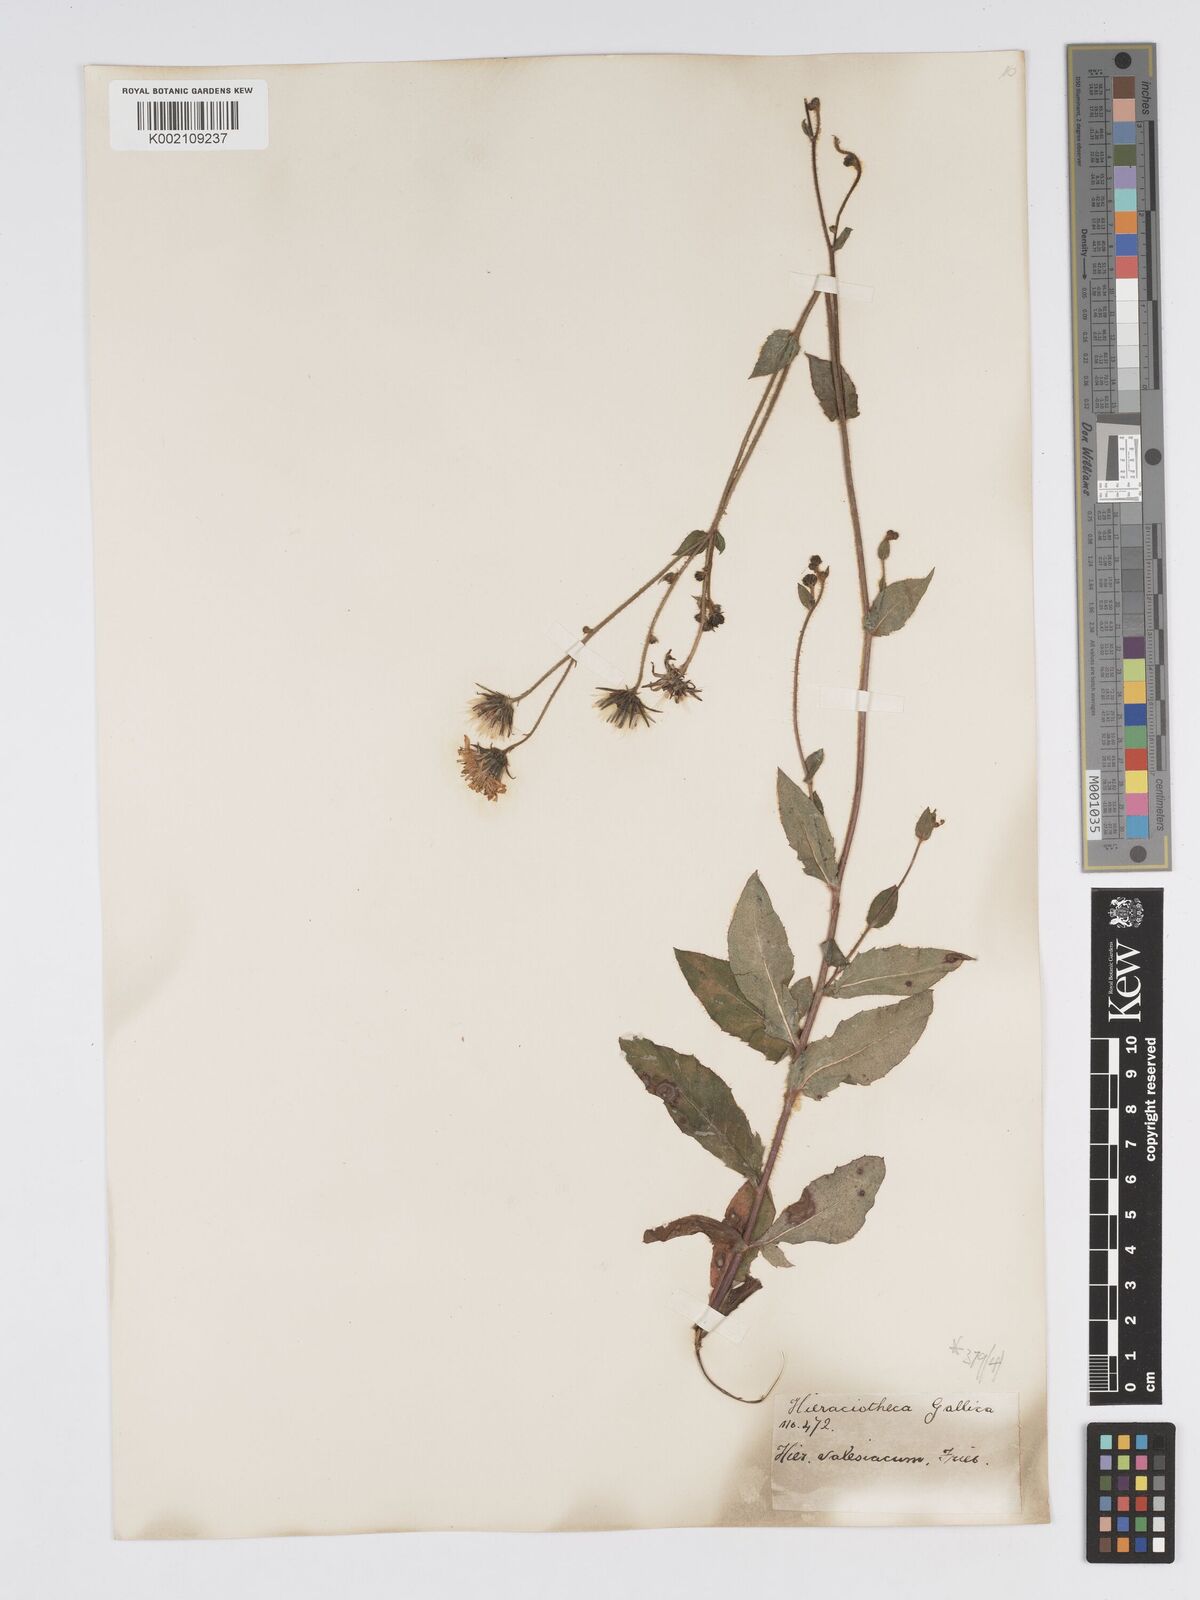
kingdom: Plantae
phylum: Tracheophyta
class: Magnoliopsida
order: Asterales
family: Asteraceae
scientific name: Asteraceae
